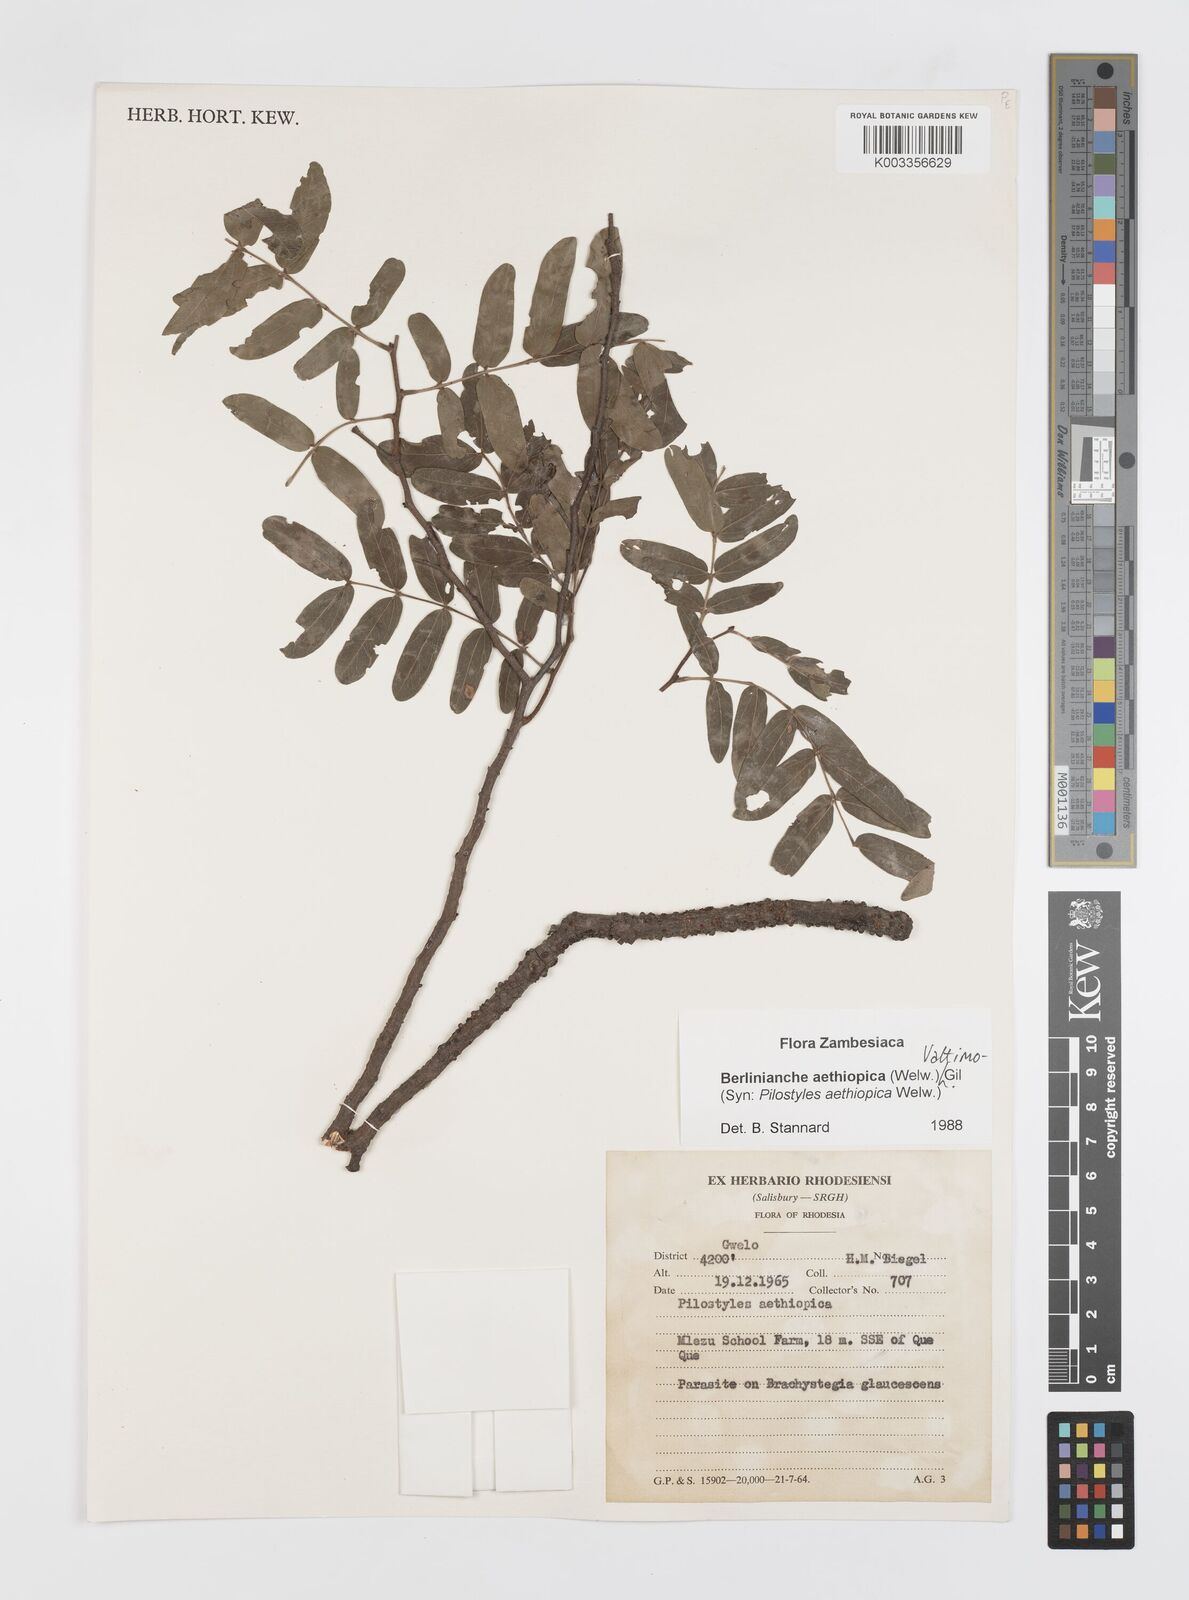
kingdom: Plantae
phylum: Tracheophyta
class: Magnoliopsida
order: Cucurbitales
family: Apodanthaceae
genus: Pilostyles
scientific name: Pilostyles aethiopica
